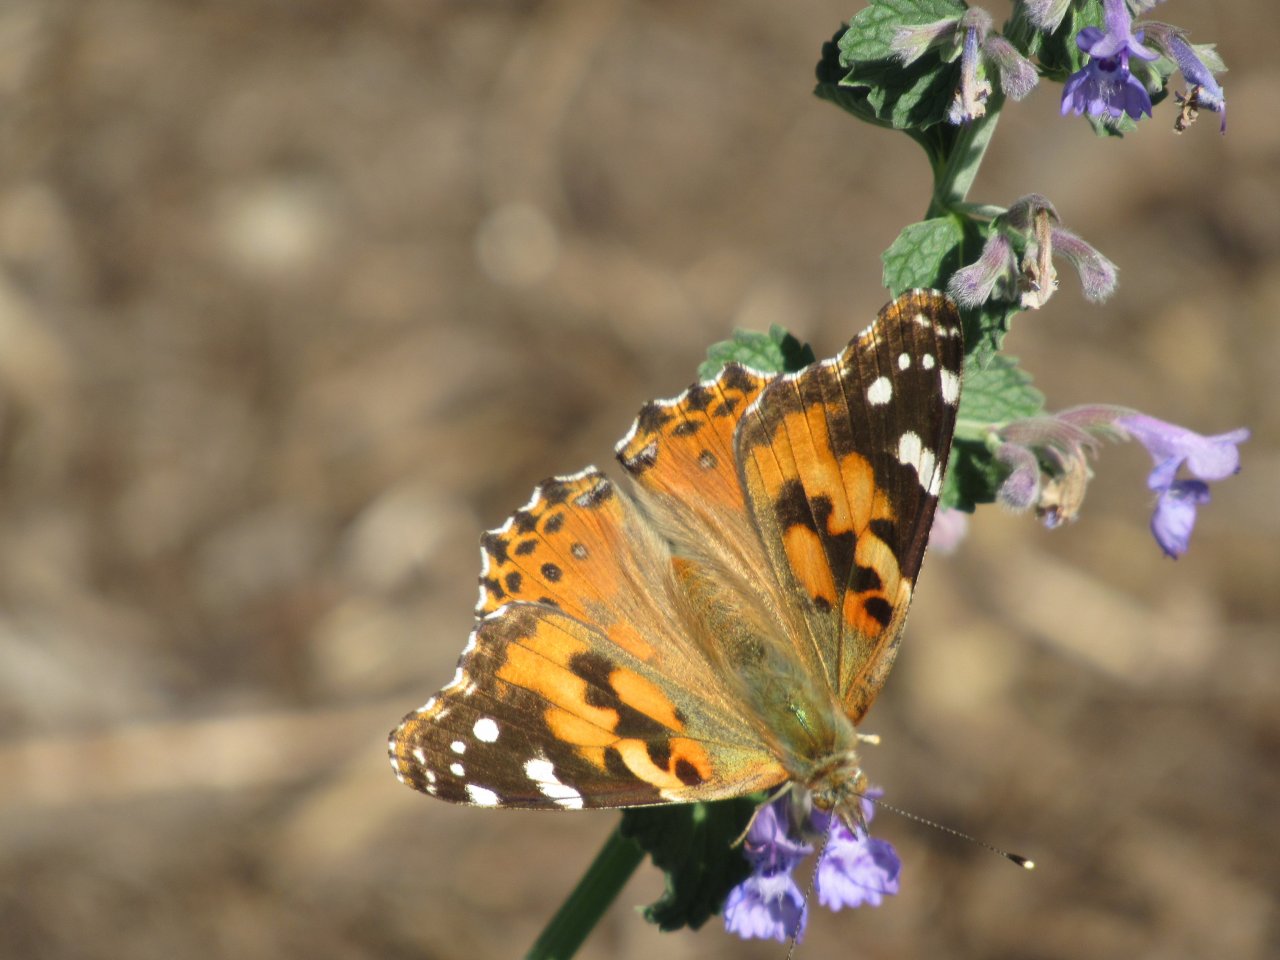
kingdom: Animalia
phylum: Arthropoda
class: Insecta
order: Lepidoptera
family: Nymphalidae
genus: Vanessa
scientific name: Vanessa cardui
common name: Painted Lady
